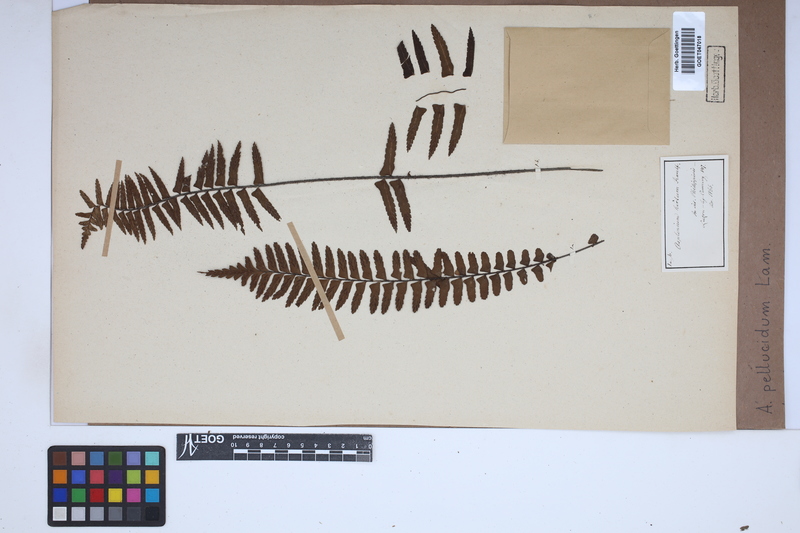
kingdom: Plantae
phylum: Tracheophyta
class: Polypodiopsida
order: Polypodiales
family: Aspleniaceae
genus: Asplenium
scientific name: Asplenium pellucidum
